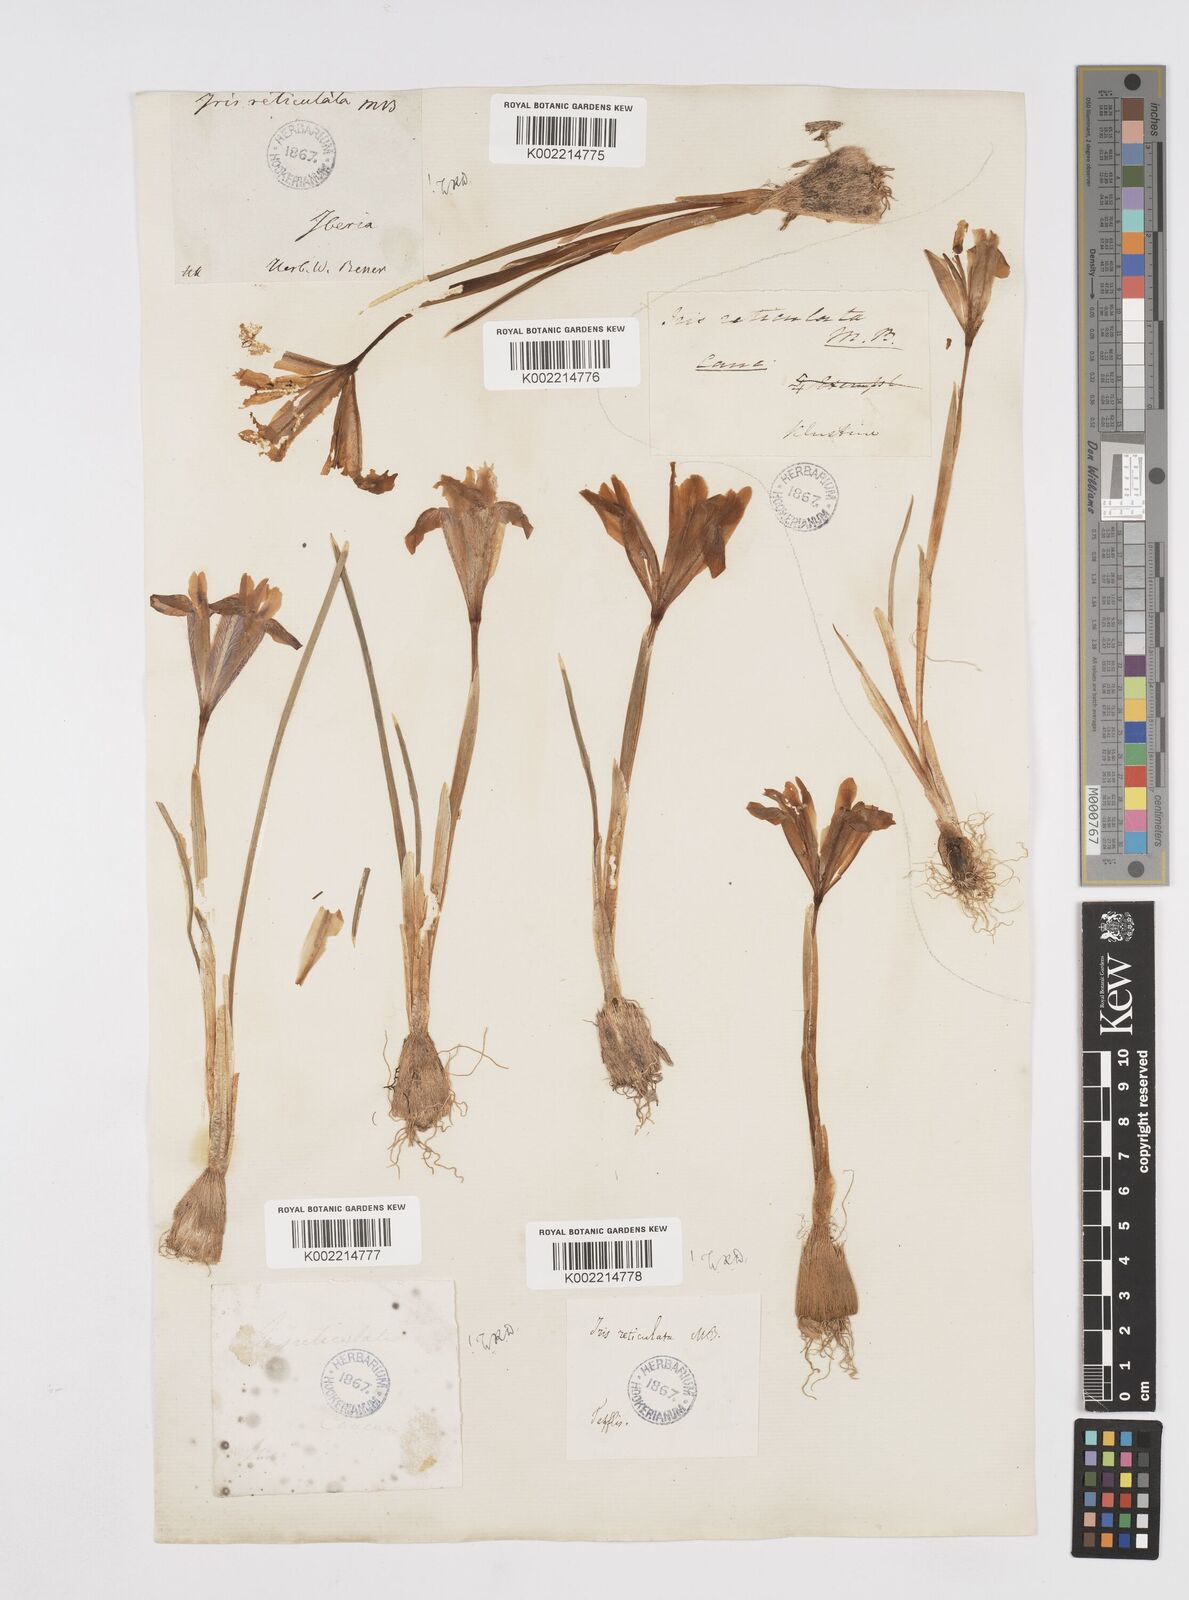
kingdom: Plantae
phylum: Tracheophyta
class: Liliopsida
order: Asparagales
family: Iridaceae
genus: Iris
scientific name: Iris reticulata
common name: Netted iris
